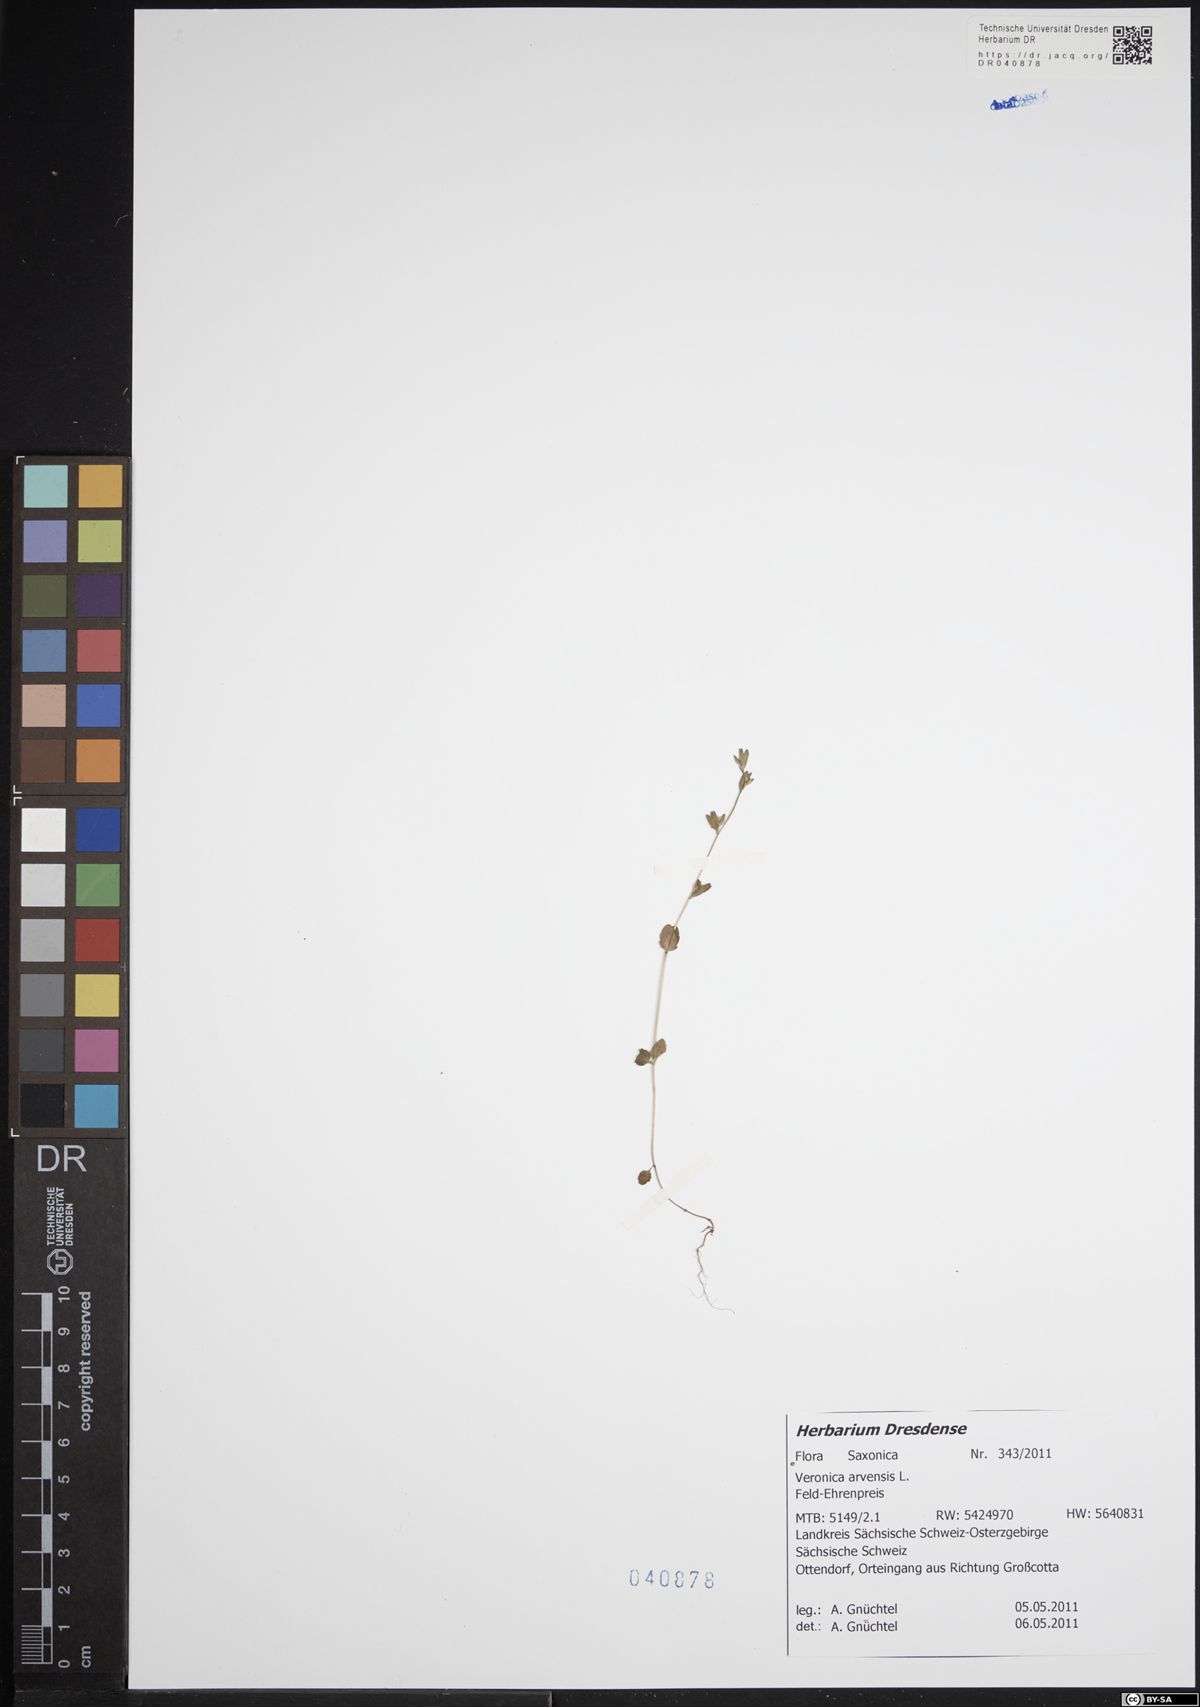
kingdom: Plantae
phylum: Tracheophyta
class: Magnoliopsida
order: Lamiales
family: Plantaginaceae
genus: Veronica
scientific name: Veronica arvensis
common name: Corn speedwell
